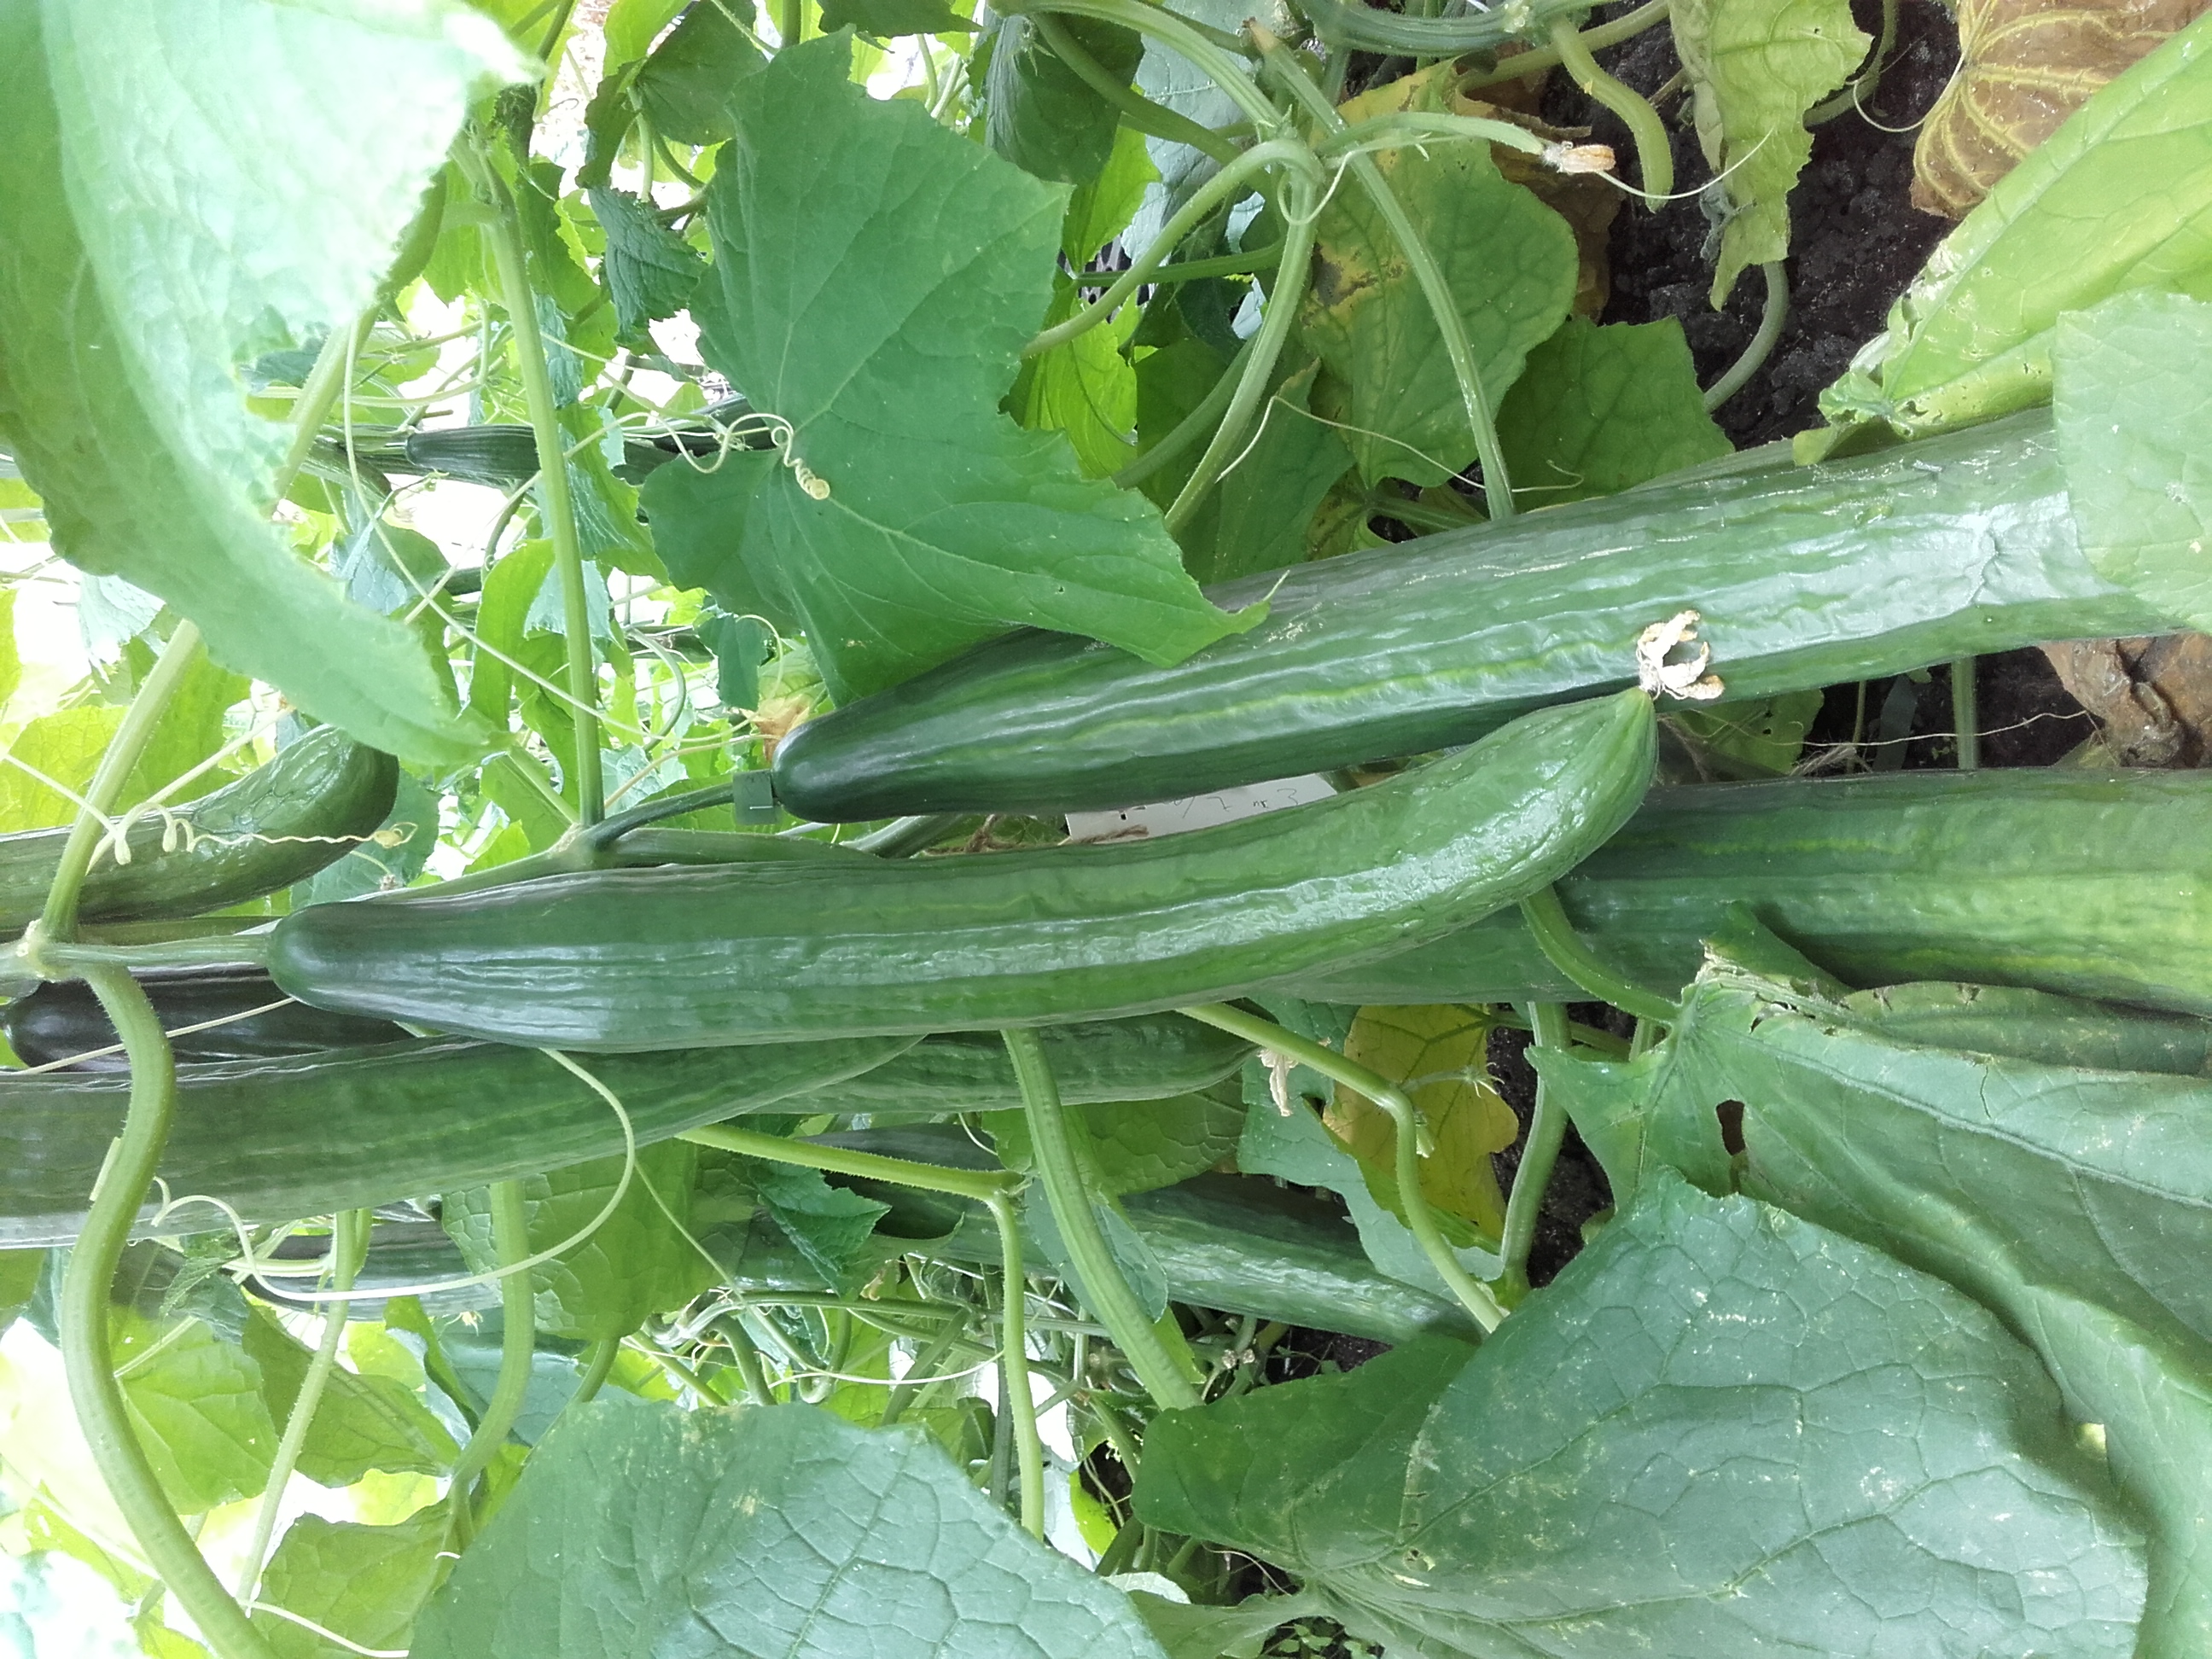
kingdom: Plantae
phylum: Tracheophyta
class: Magnoliopsida
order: Cucurbitales
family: Cucurbitaceae
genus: Cucumis
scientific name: Cucumis sativus
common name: Cucumber
